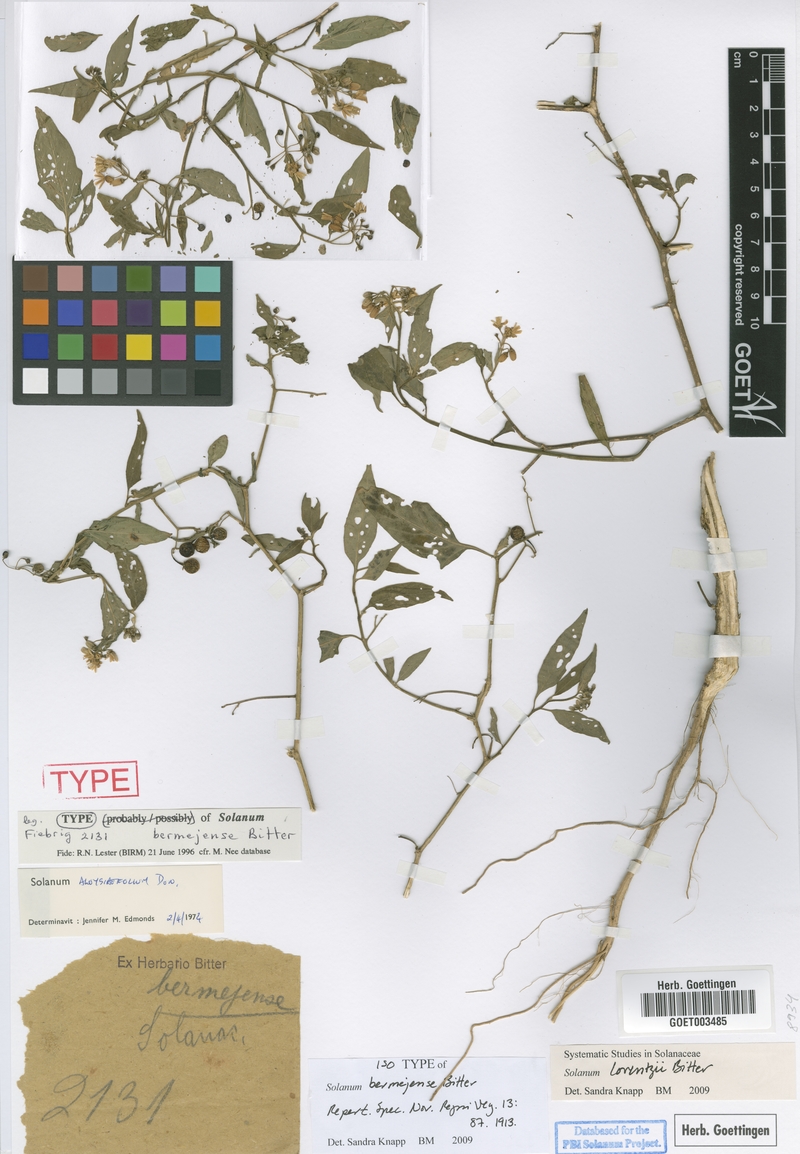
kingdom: Plantae
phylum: Tracheophyta
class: Magnoliopsida
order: Solanales
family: Solanaceae
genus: Solanum
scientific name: Solanum cochabambense
